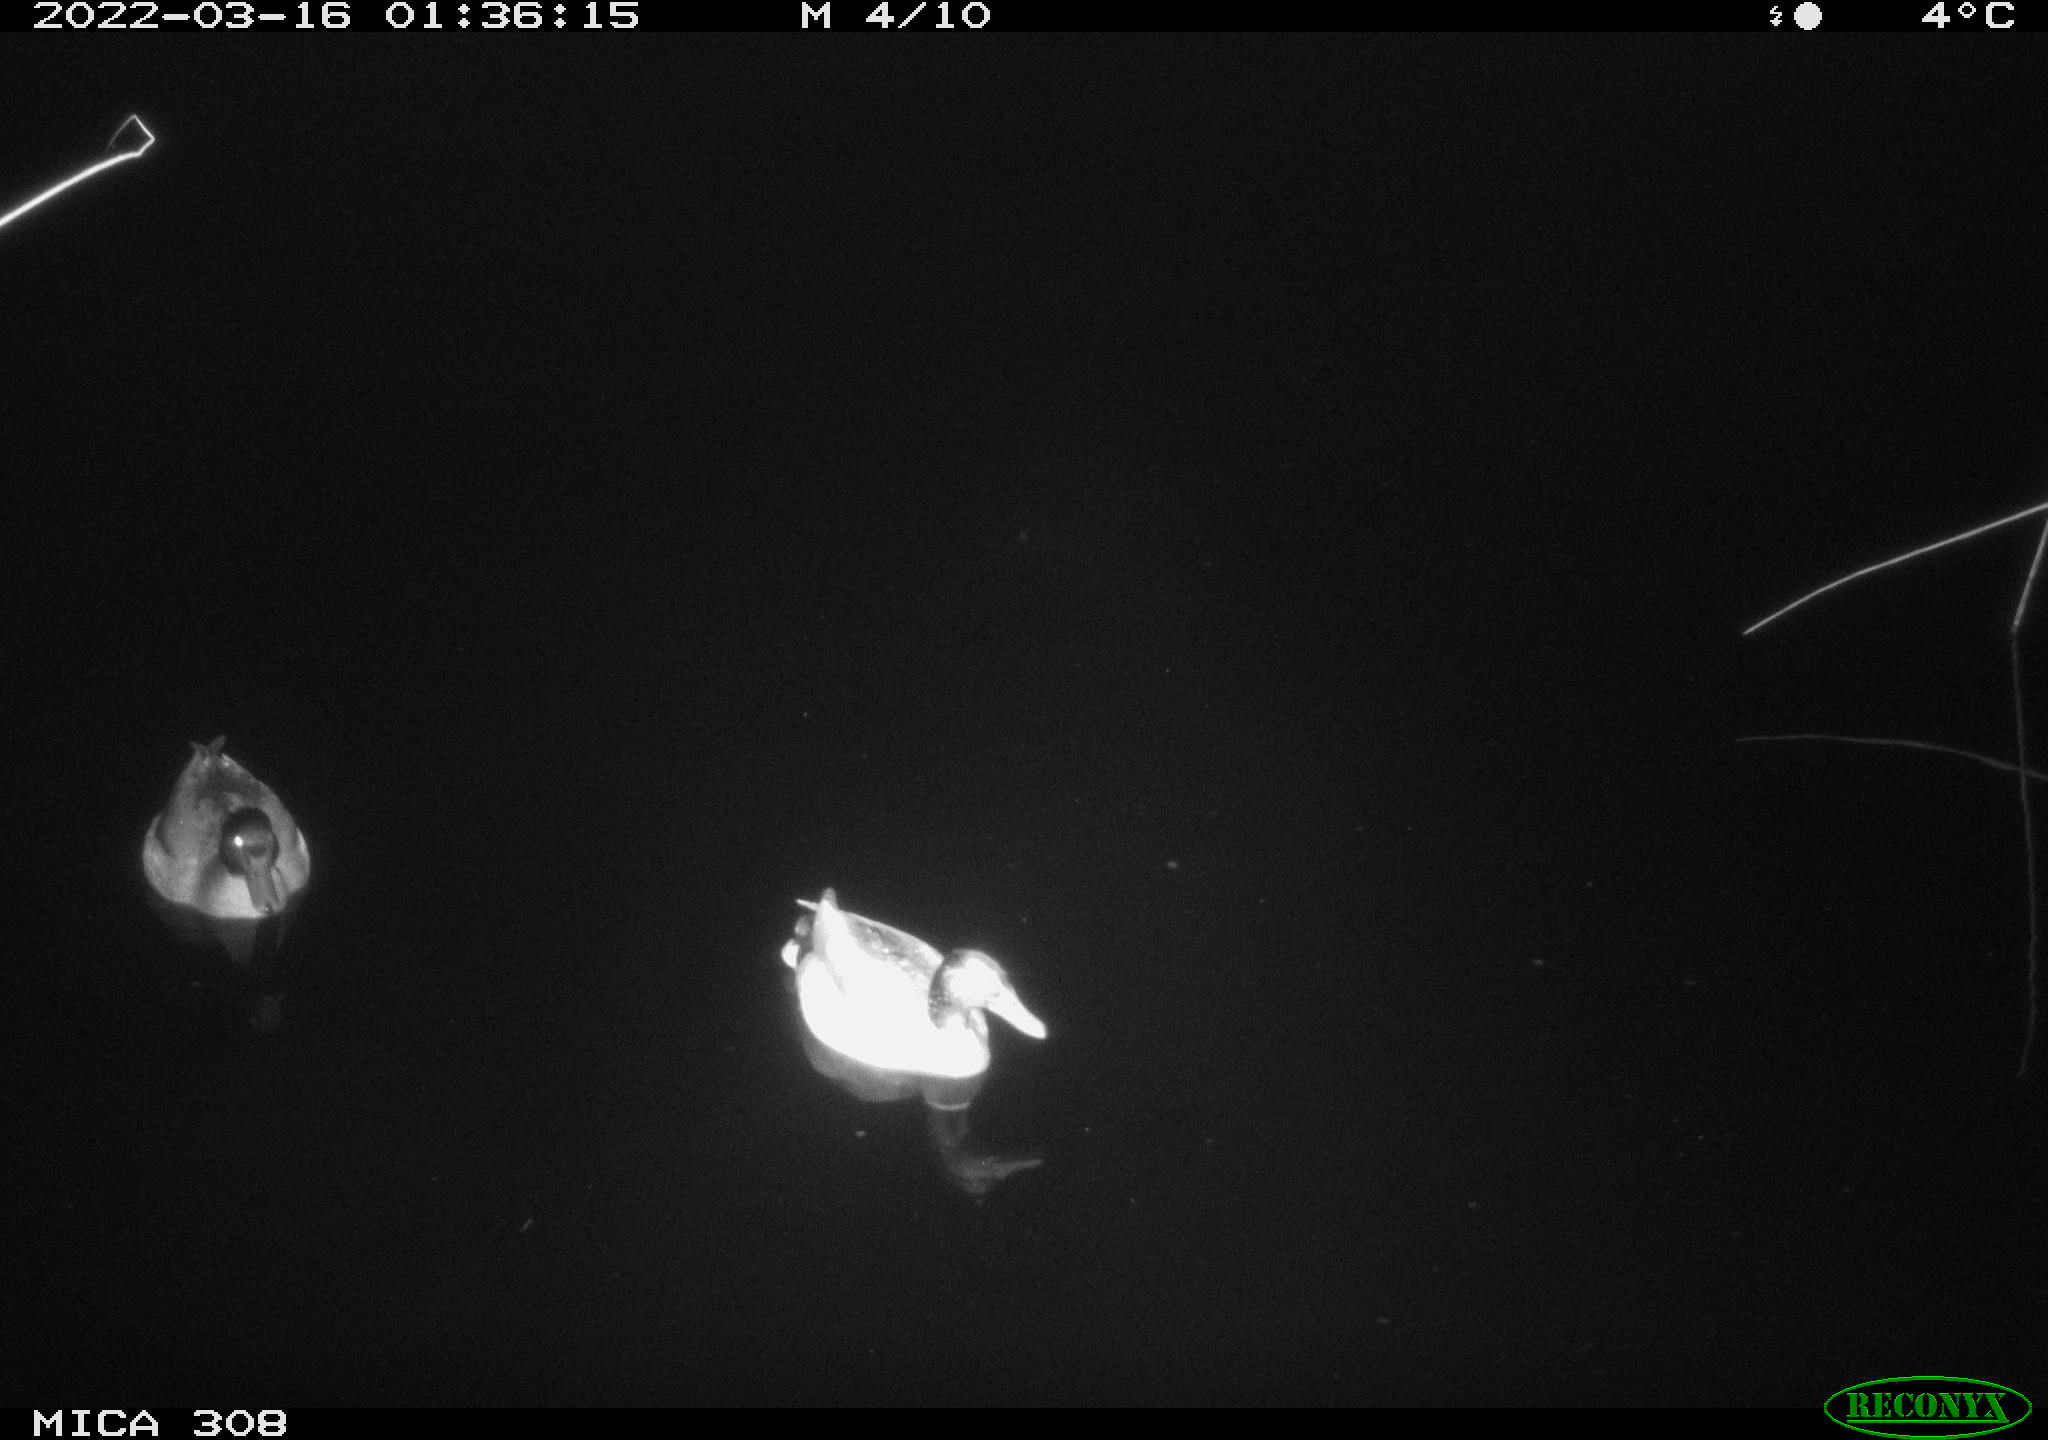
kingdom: Animalia
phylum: Chordata
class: Aves
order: Anseriformes
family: Anatidae
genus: Anas
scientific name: Anas platyrhynchos
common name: Mallard
